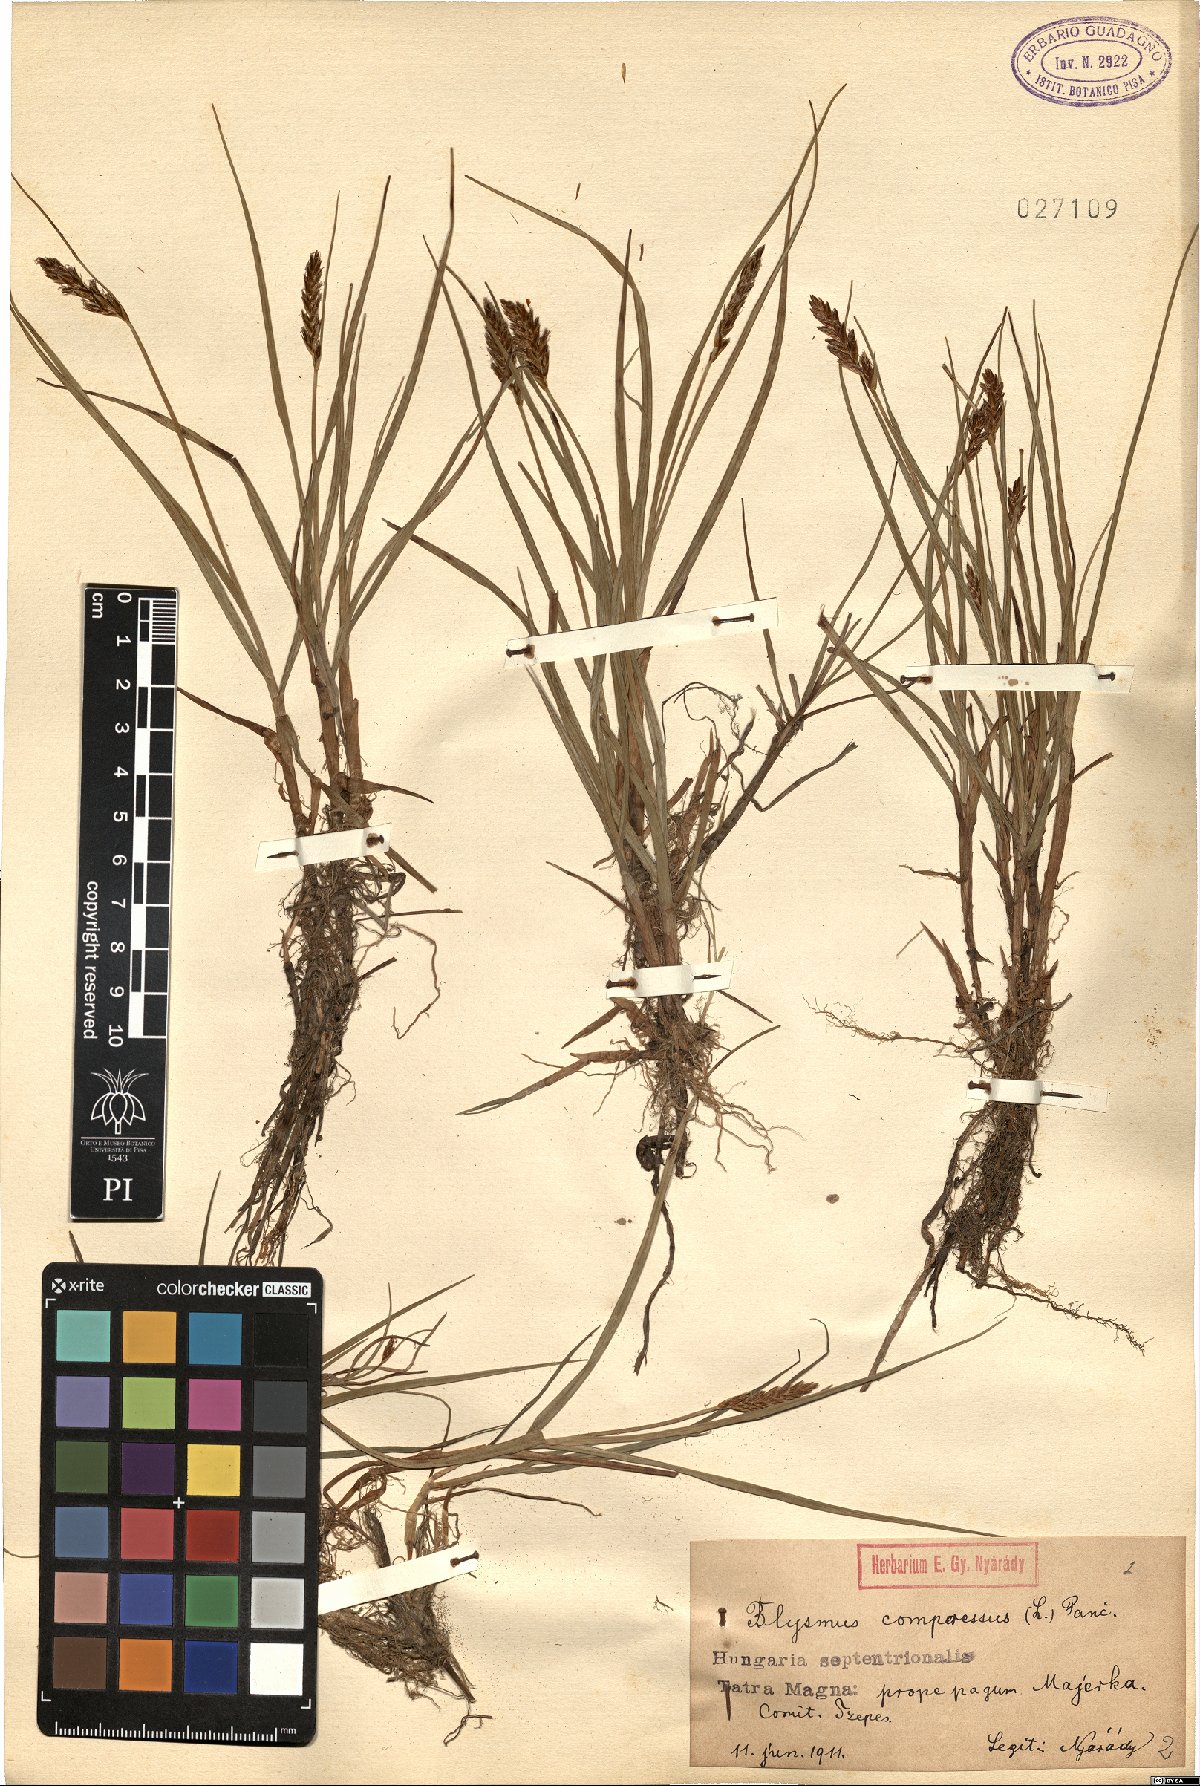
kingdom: Plantae
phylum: Tracheophyta
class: Liliopsida
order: Poales
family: Cyperaceae
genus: Blysmus
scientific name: Blysmus compressus
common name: Flat-sedge
